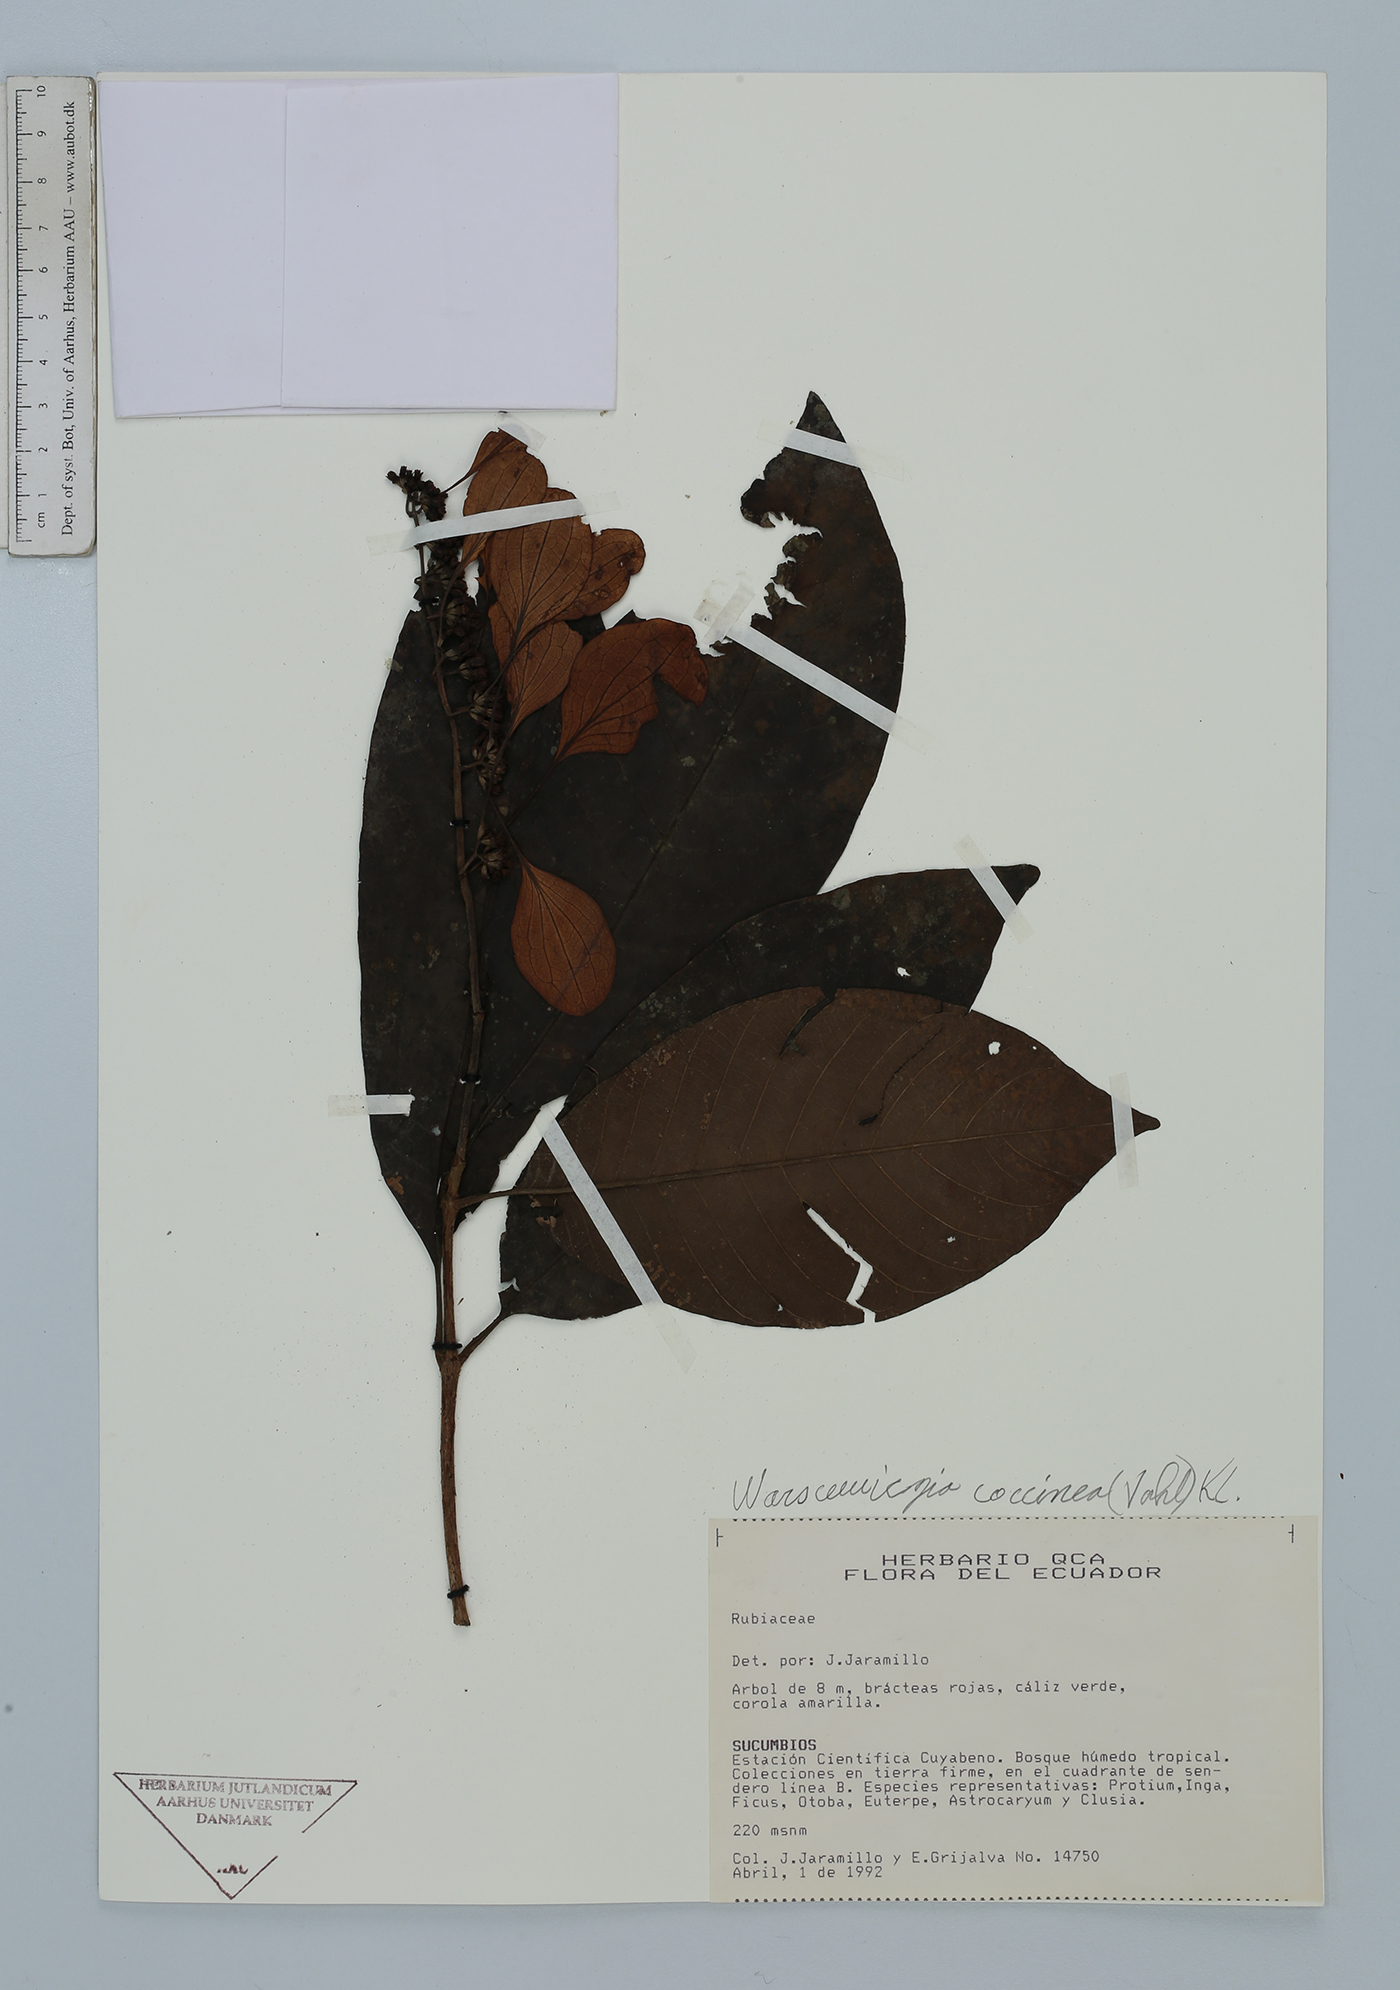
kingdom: Plantae
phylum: Tracheophyta
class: Magnoliopsida
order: Gentianales
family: Rubiaceae
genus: Warszewiczia
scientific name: Warszewiczia coccinea
